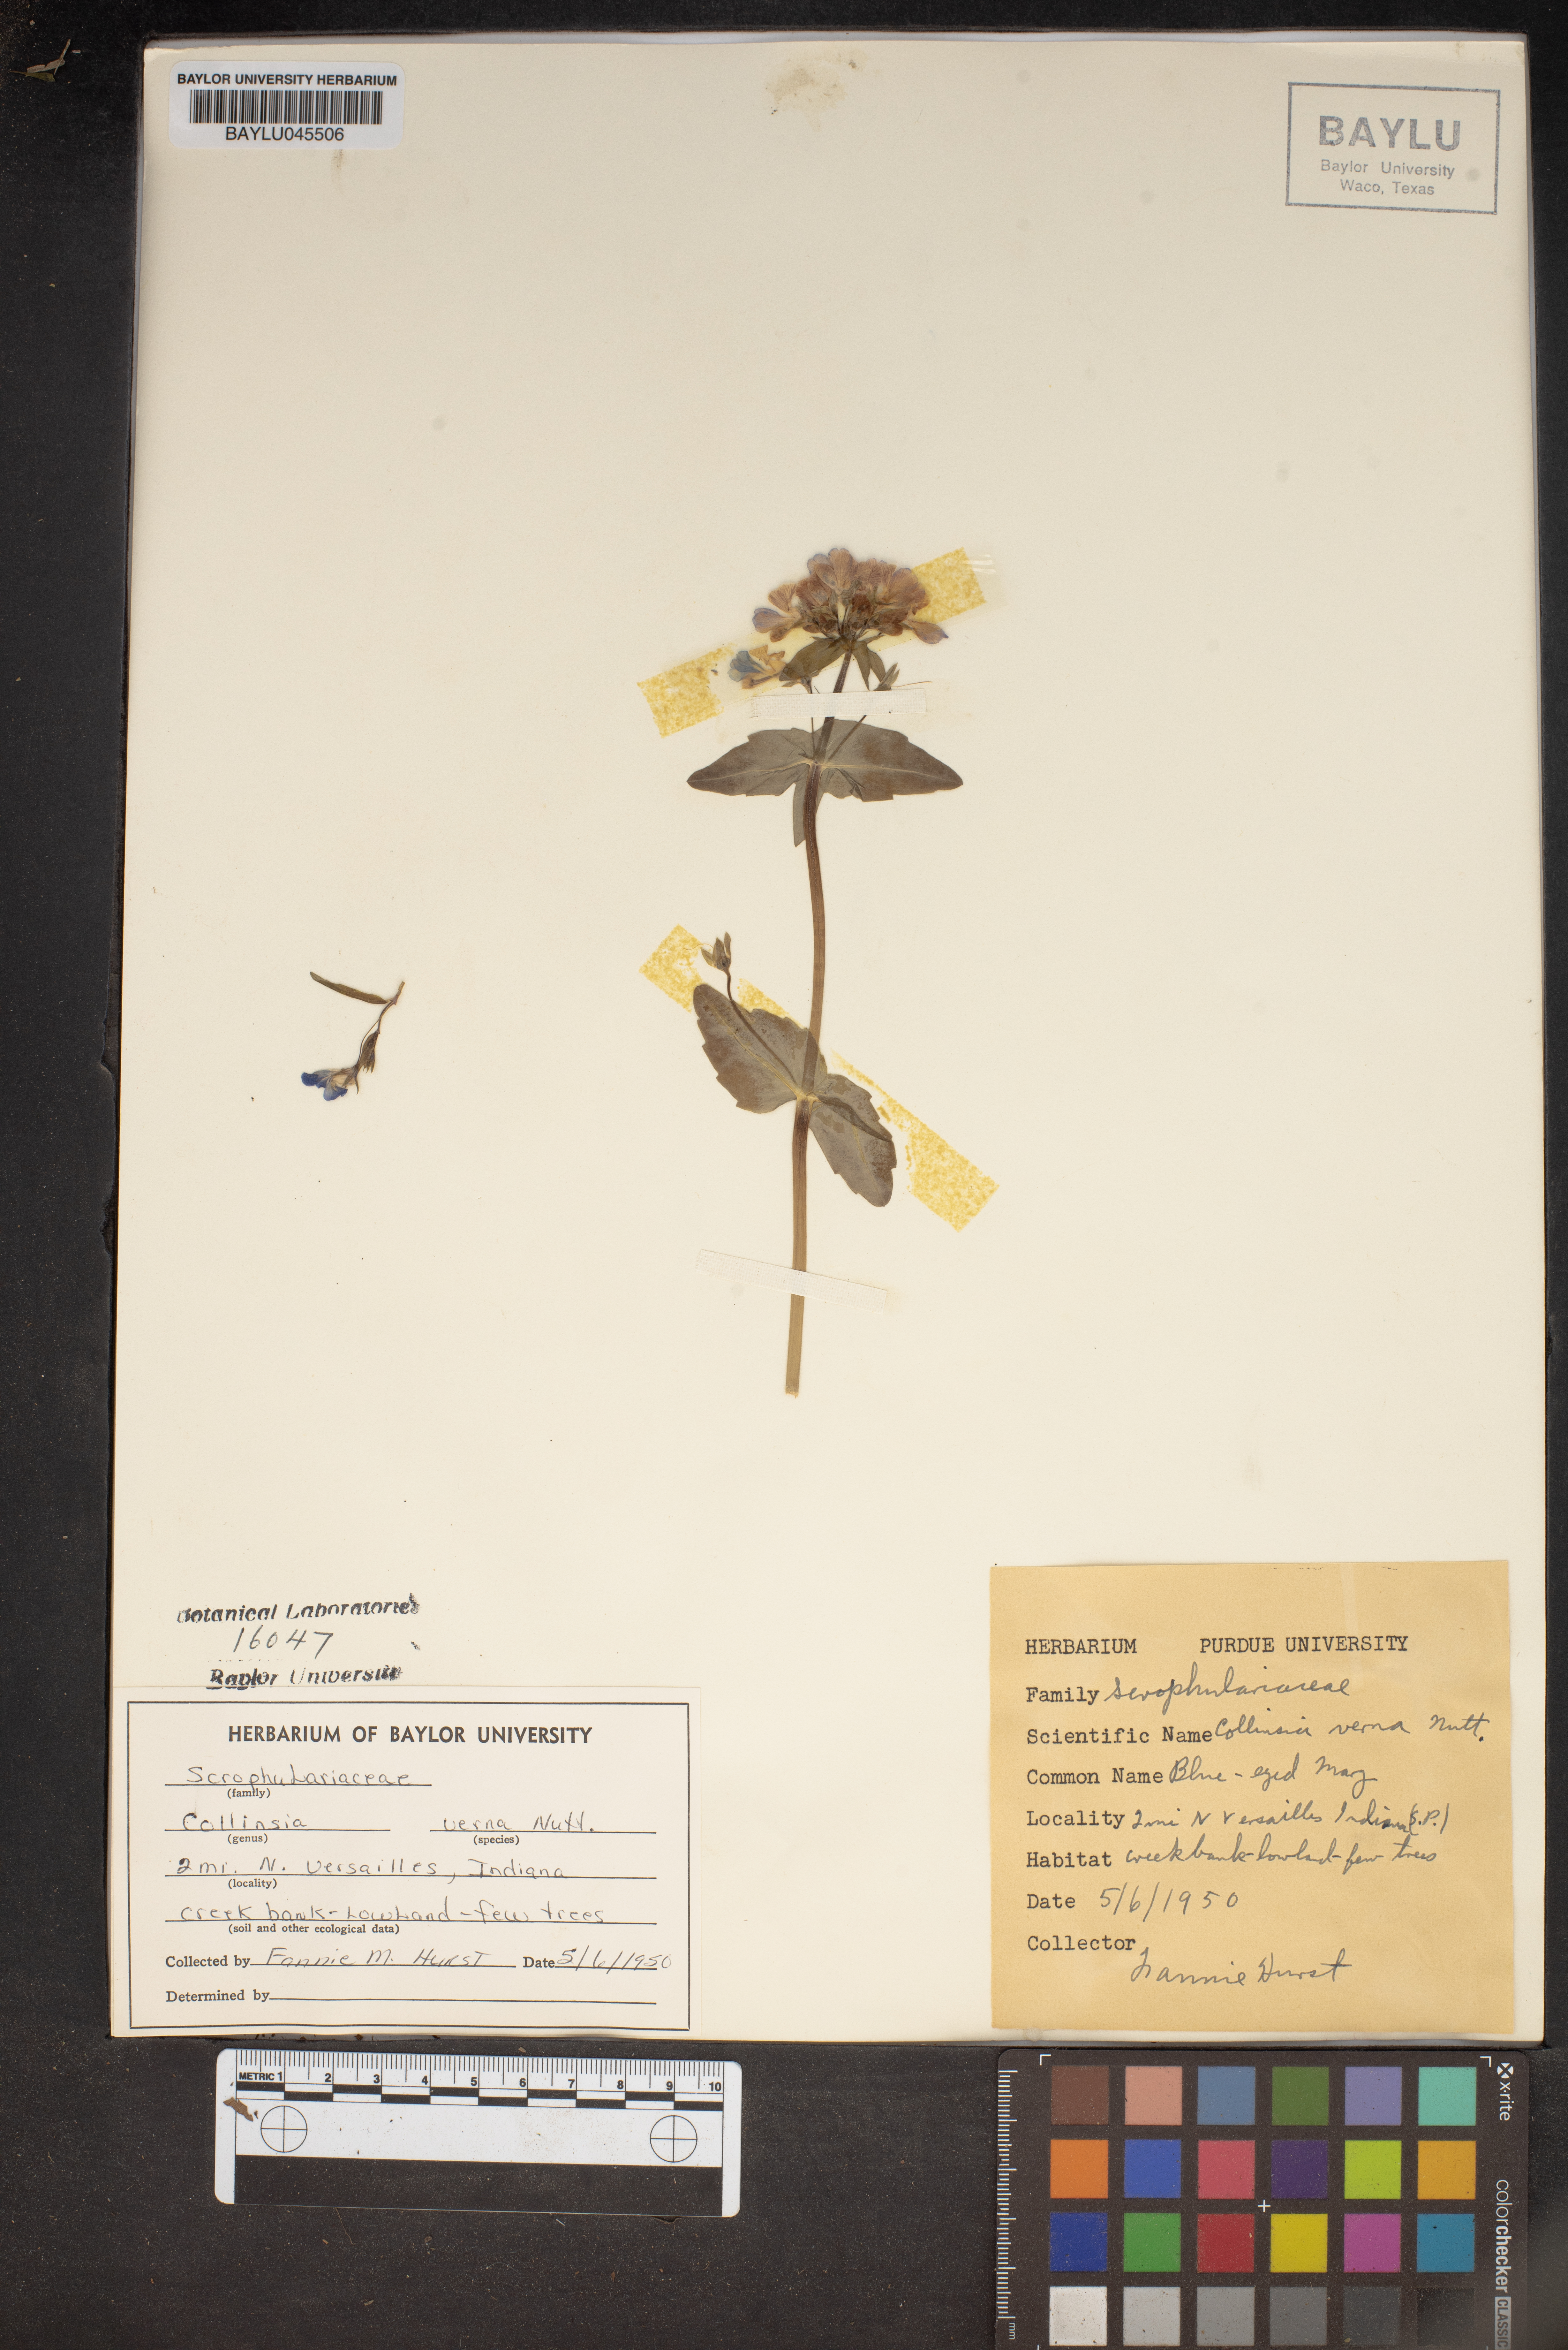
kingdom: Plantae
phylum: Tracheophyta
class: Magnoliopsida
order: Lamiales
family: Plantaginaceae
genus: Collinsia
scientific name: Collinsia verna
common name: Broad-leaved collinsia
